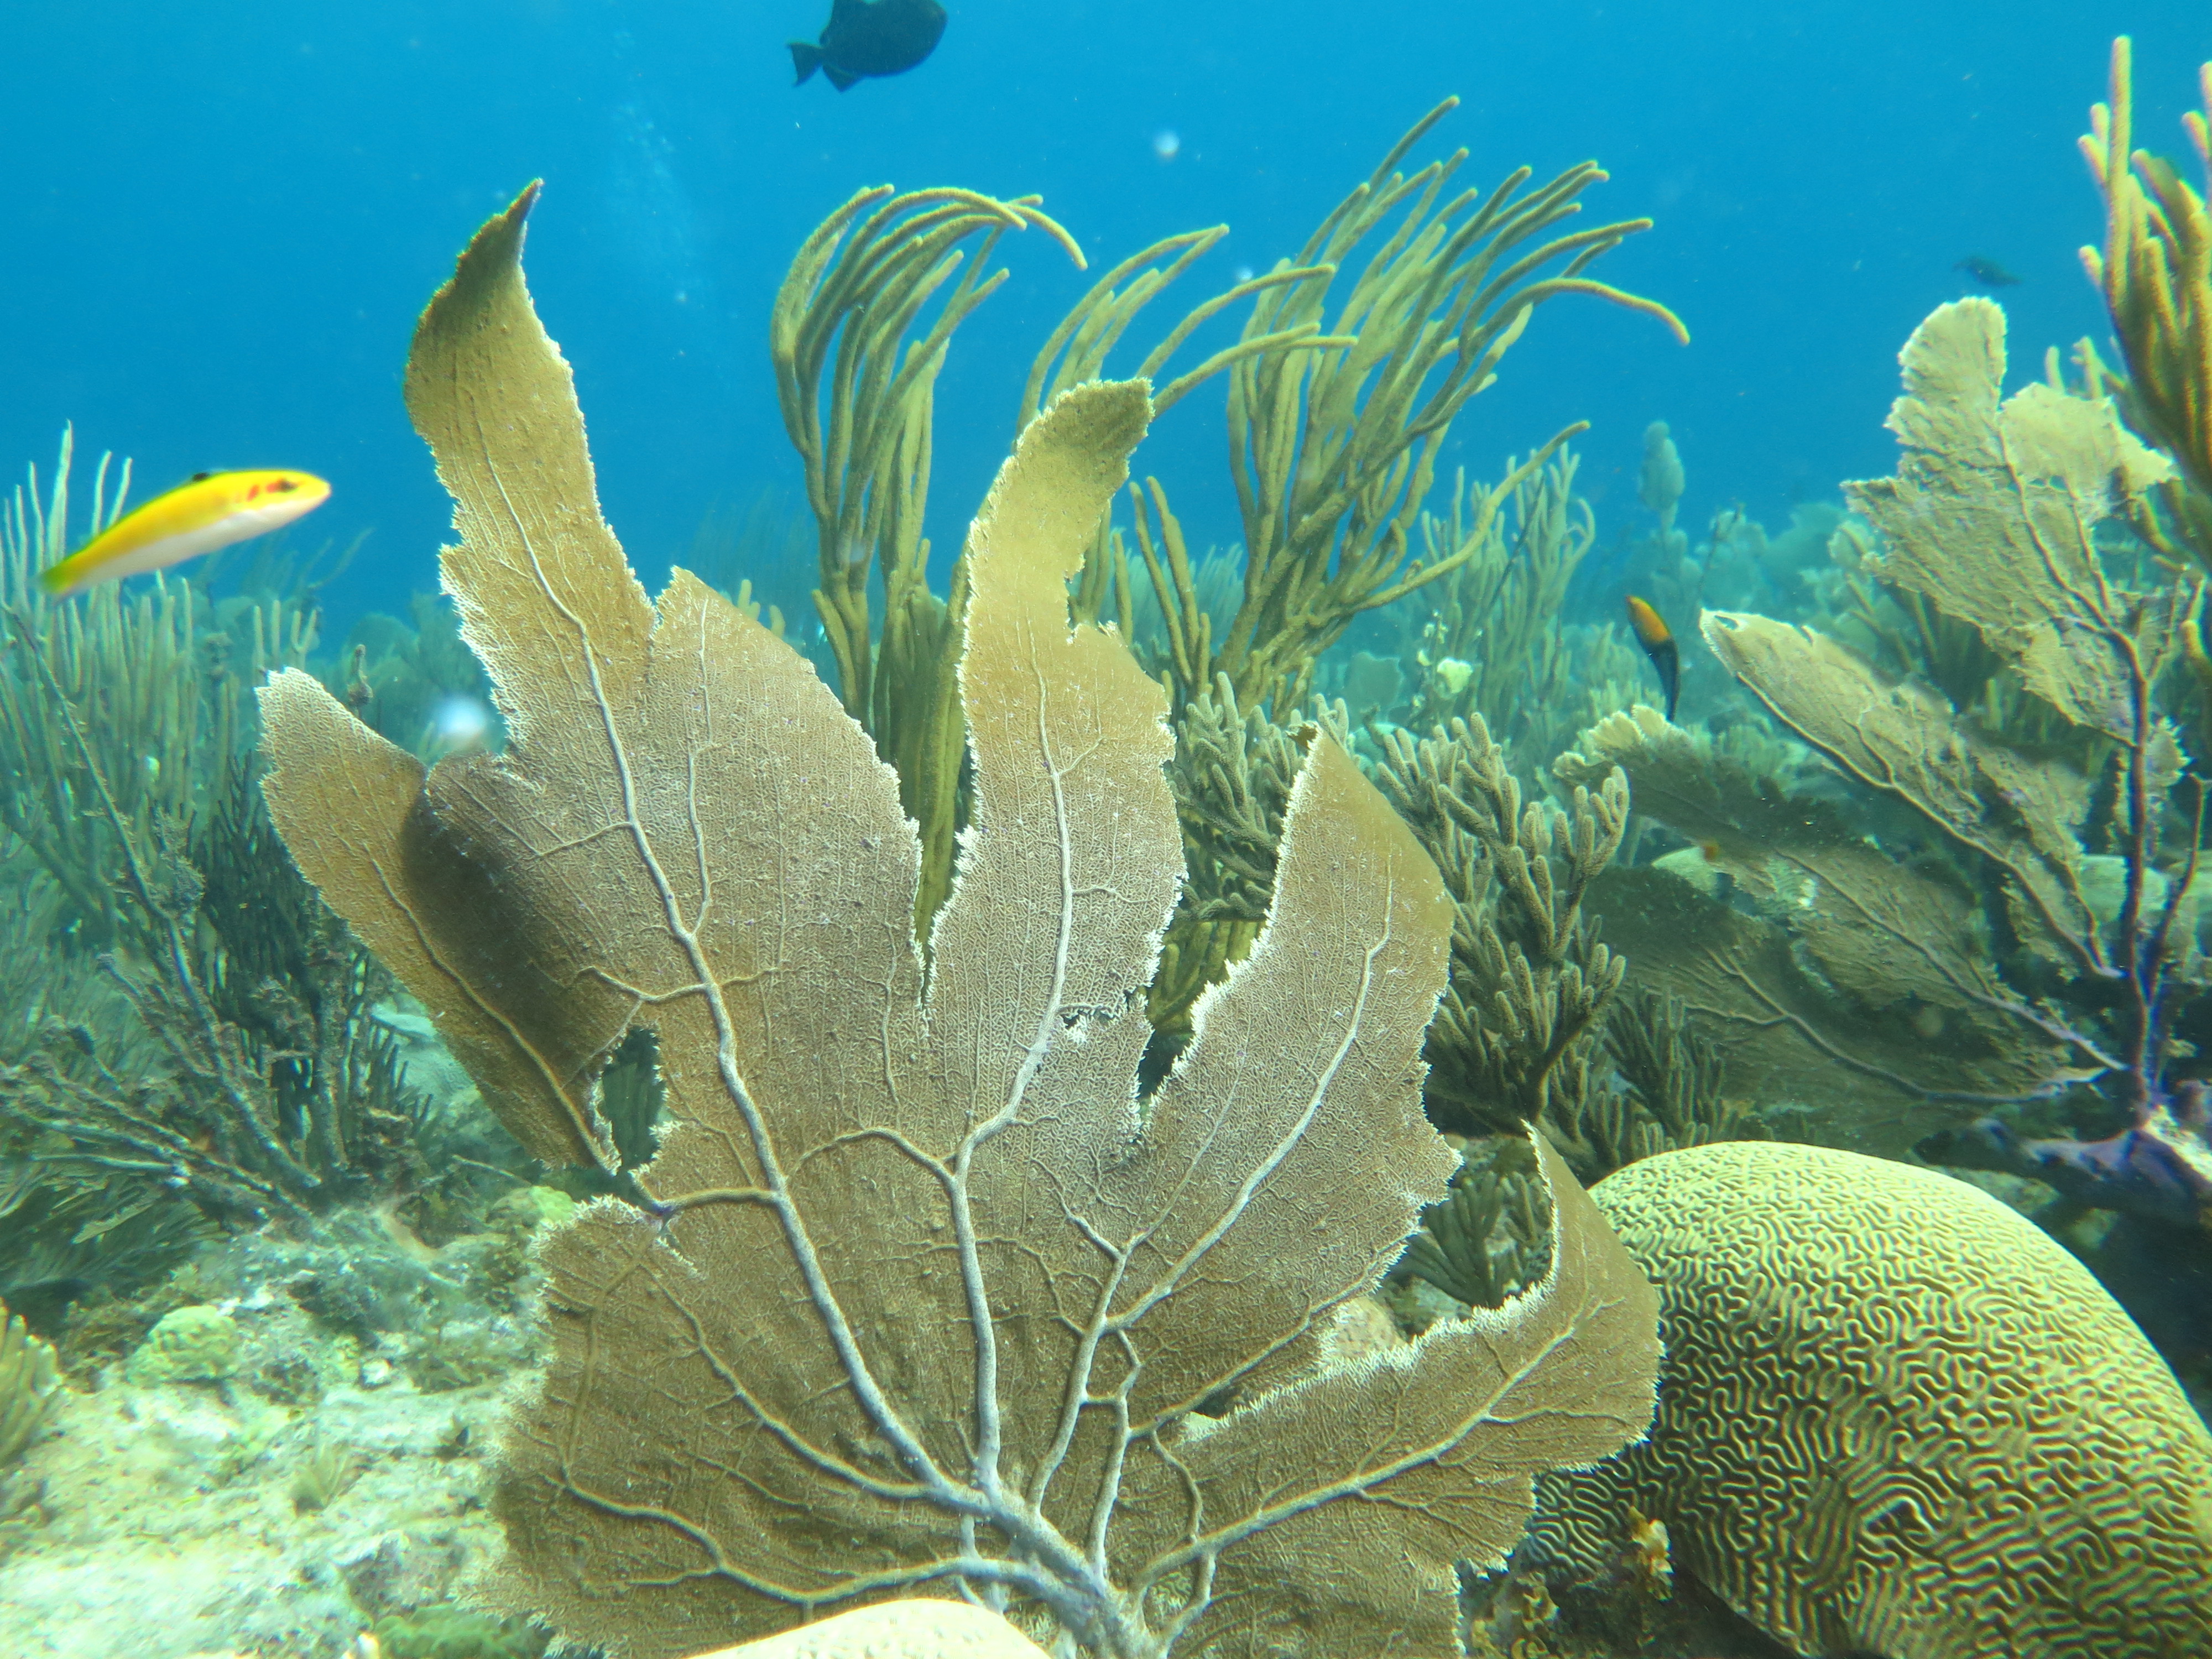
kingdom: Animalia
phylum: Cnidaria
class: Anthozoa
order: Malacalcyonacea
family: Gorgoniidae
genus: Gorgonia
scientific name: Gorgonia ventalina
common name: Common sea fan
